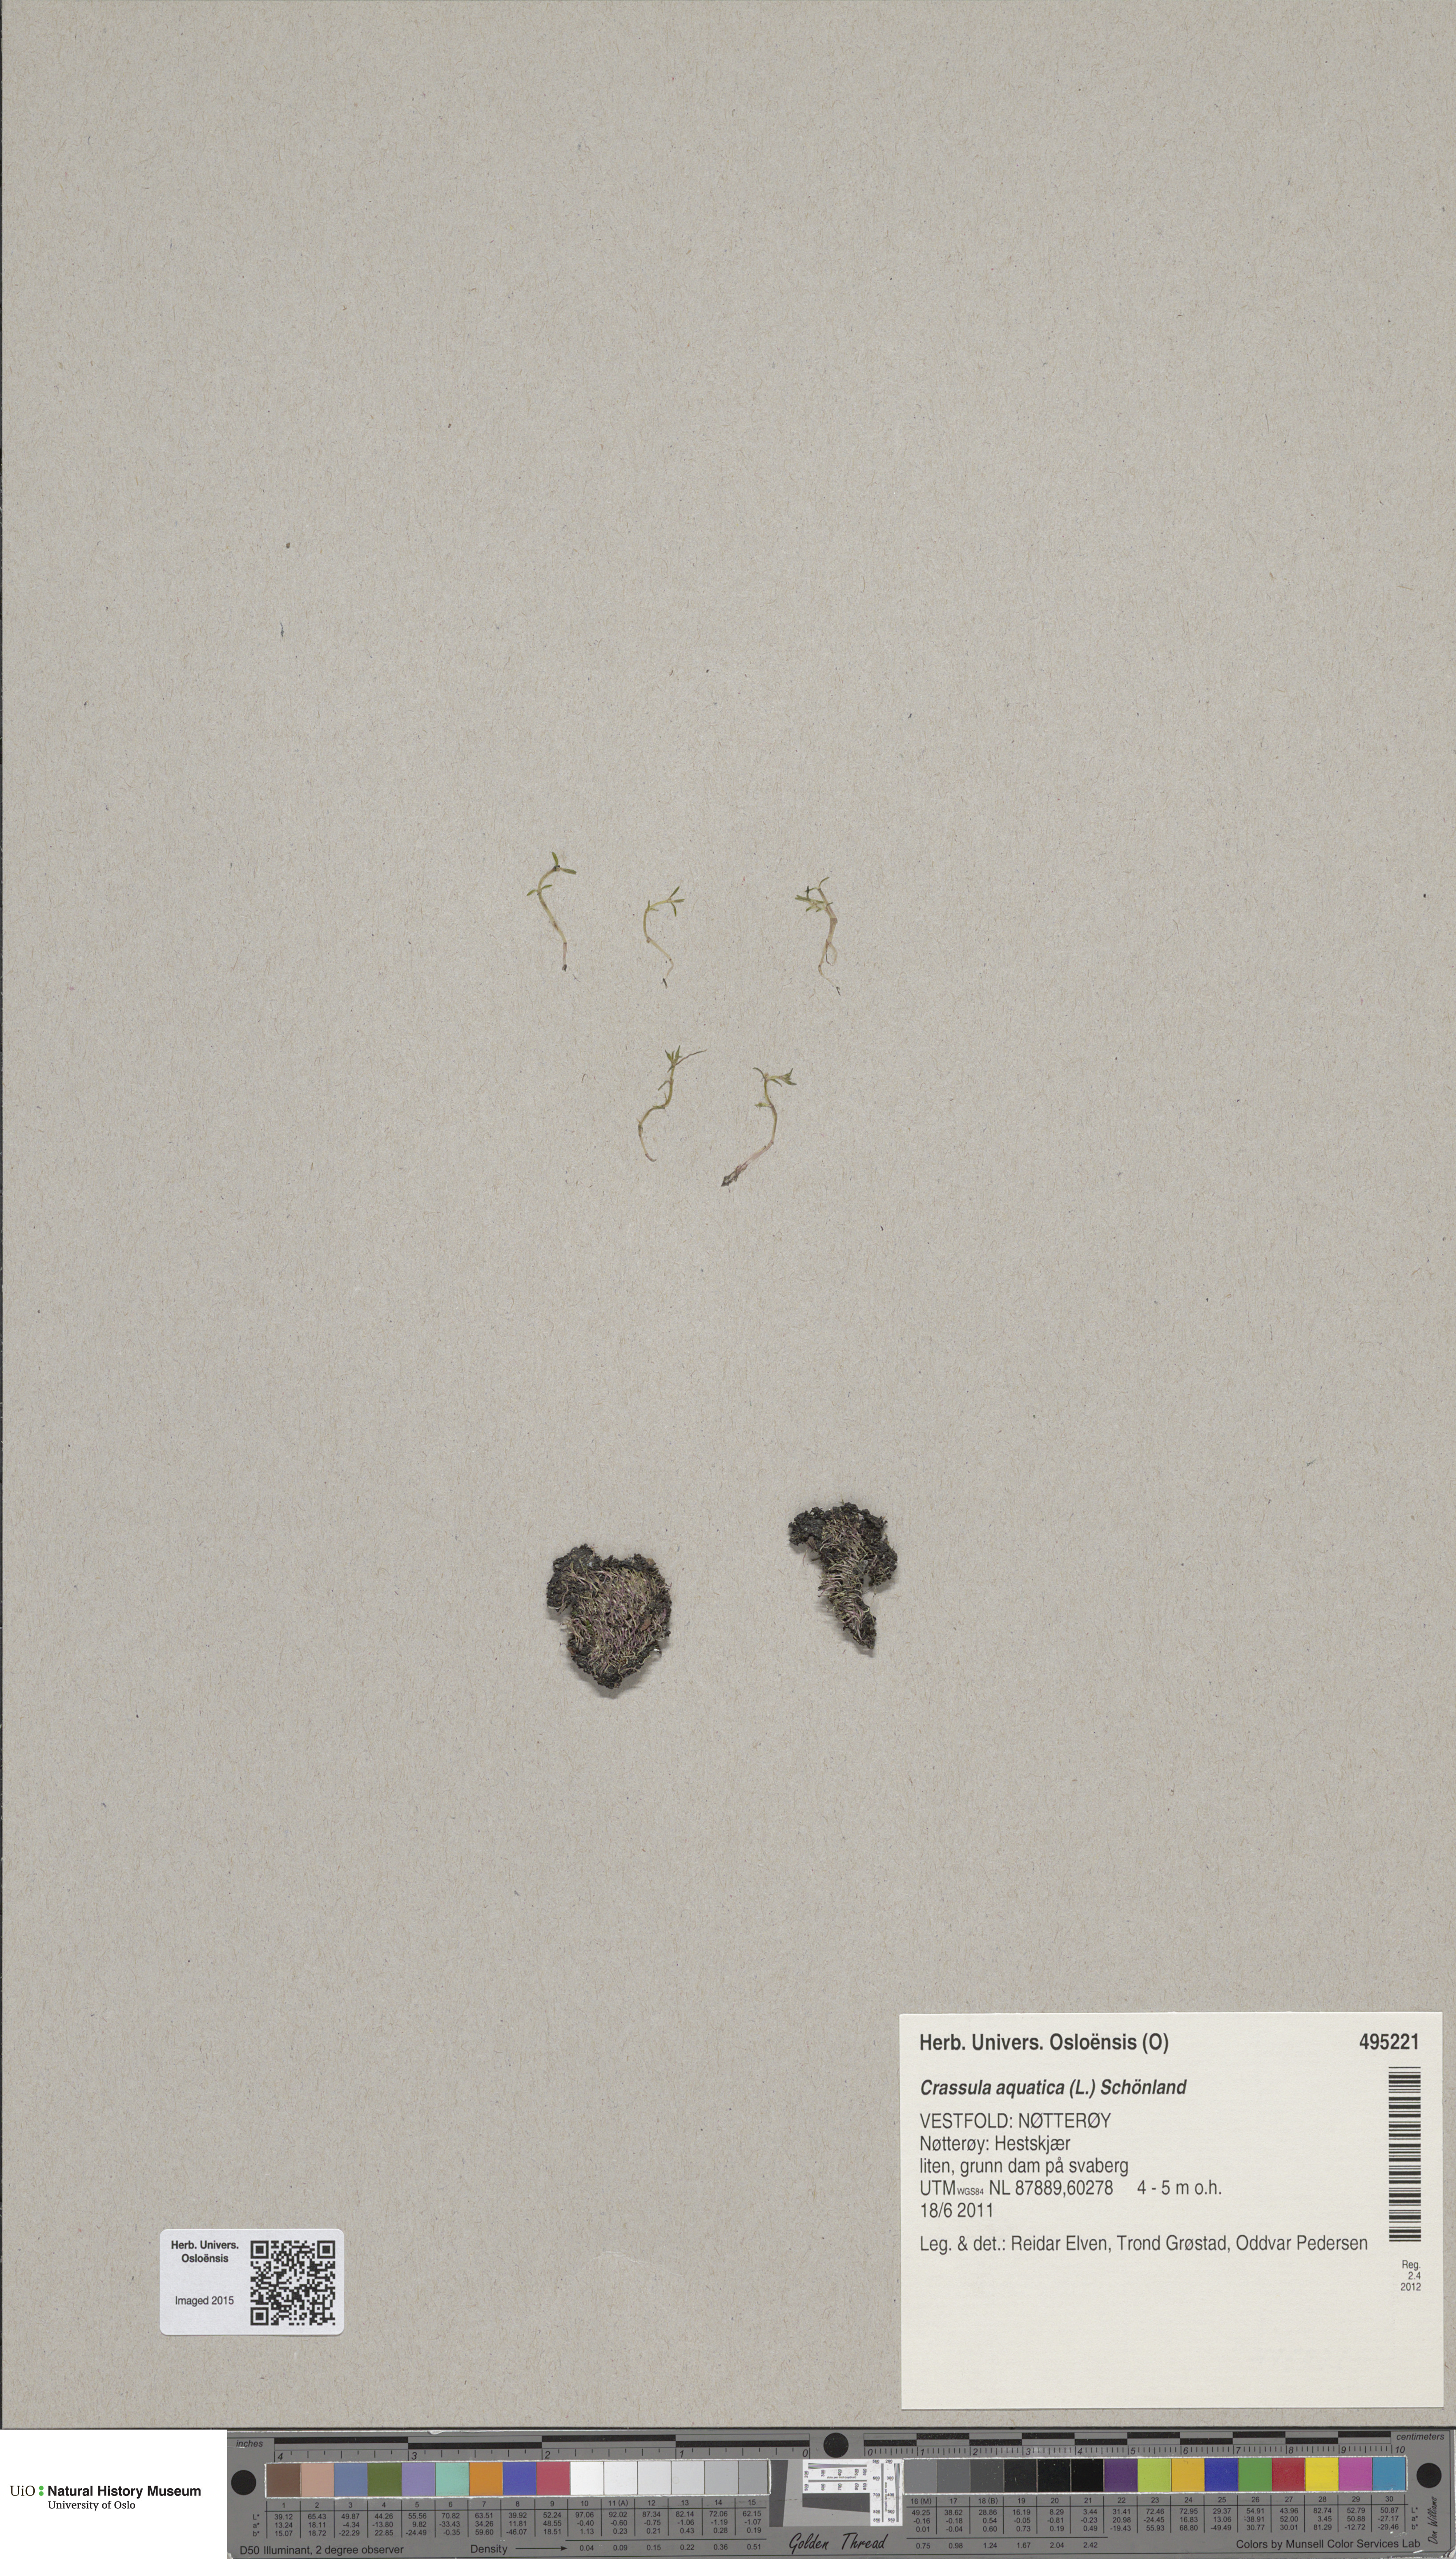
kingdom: Plantae
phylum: Tracheophyta
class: Magnoliopsida
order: Saxifragales
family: Crassulaceae
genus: Crassula
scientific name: Crassula aquatica
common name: Pigmyweed
